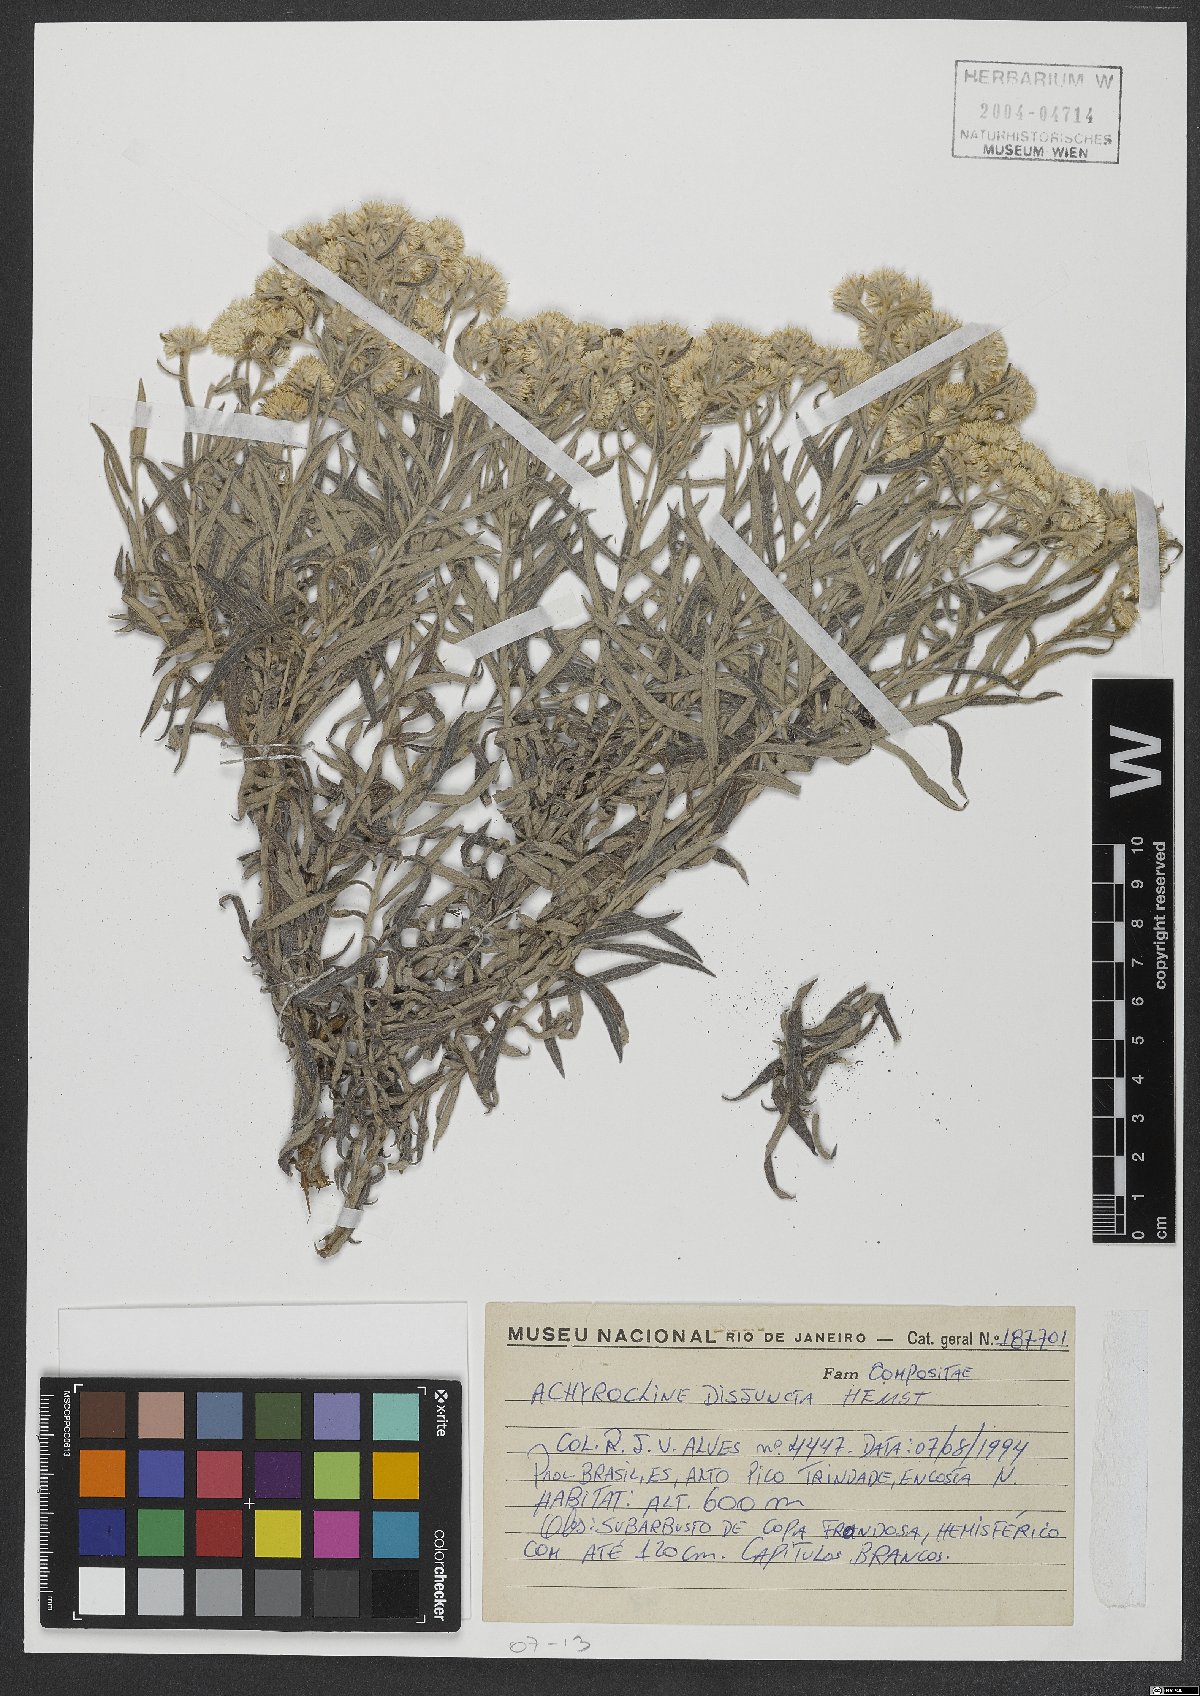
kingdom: Plantae
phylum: Tracheophyta
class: Magnoliopsida
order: Asterales
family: Asteraceae
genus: Achyrocline
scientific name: Achyrocline disjuncta
